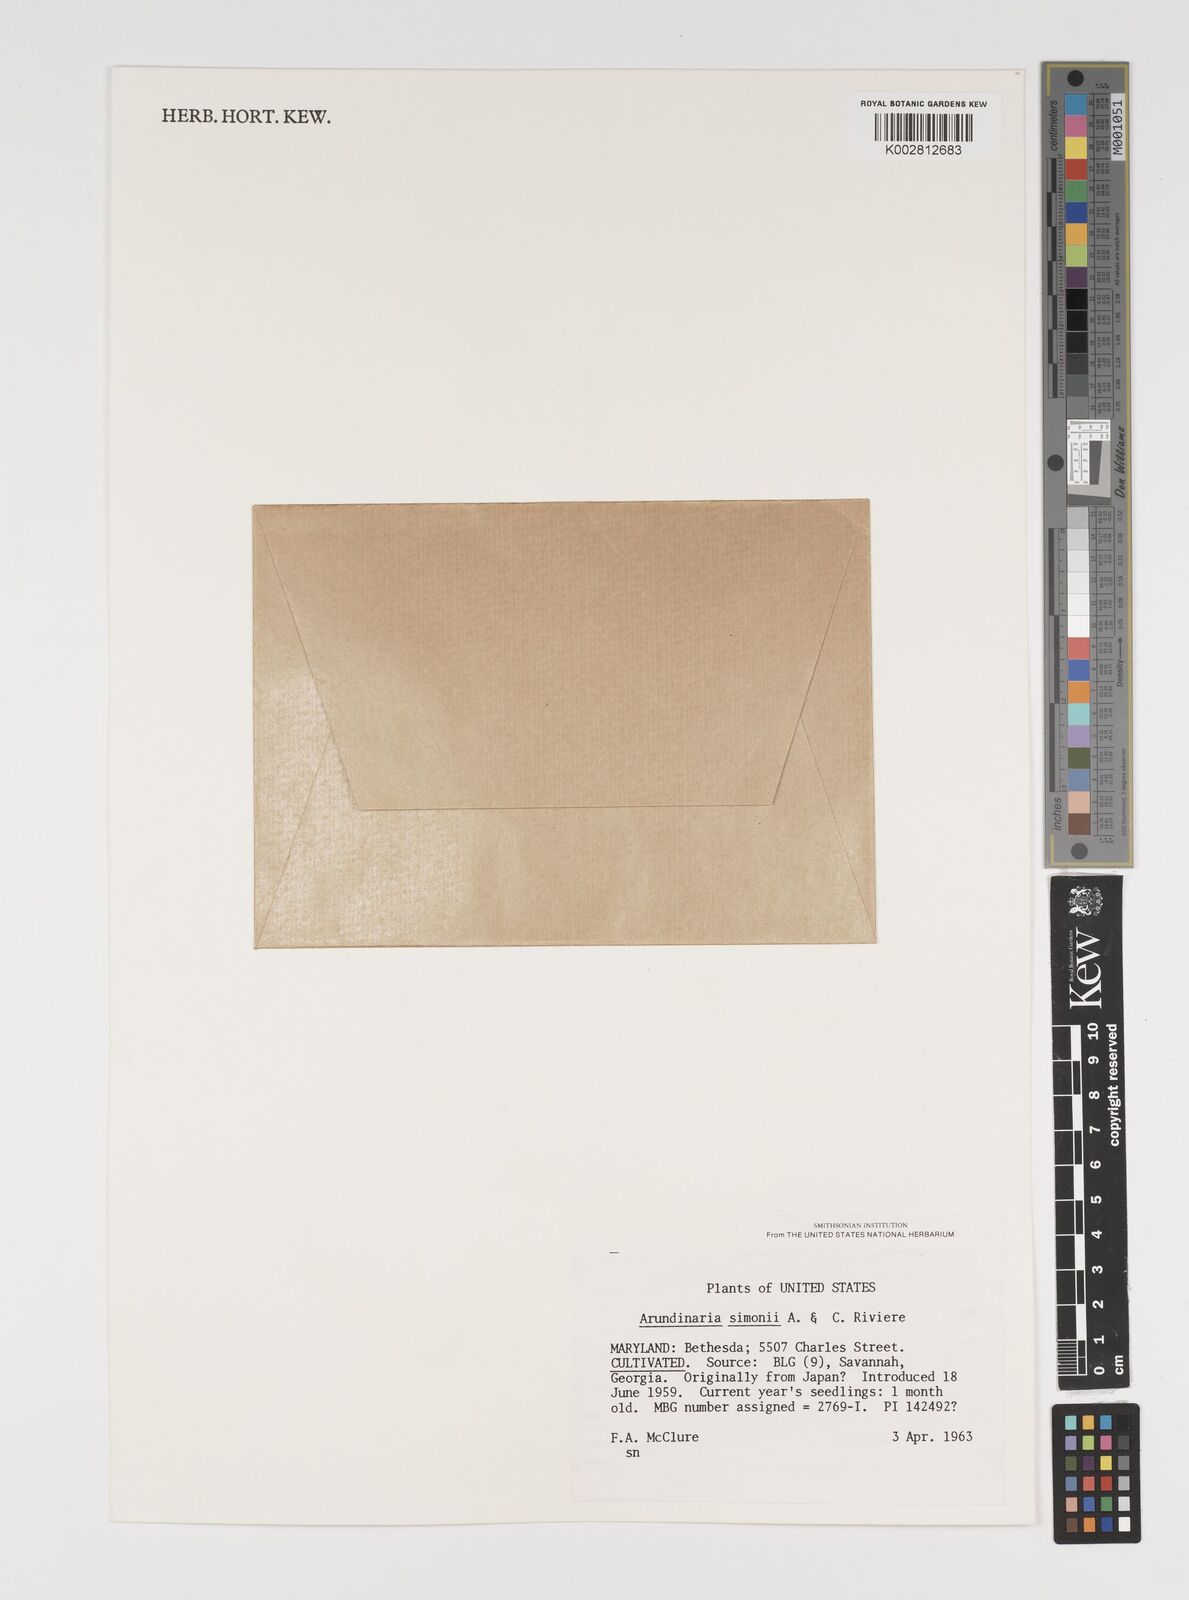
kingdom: Plantae
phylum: Tracheophyta
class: Liliopsida
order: Poales
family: Poaceae
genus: Pleioblastus
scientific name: Pleioblastus simonii
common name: Simon bamboo
